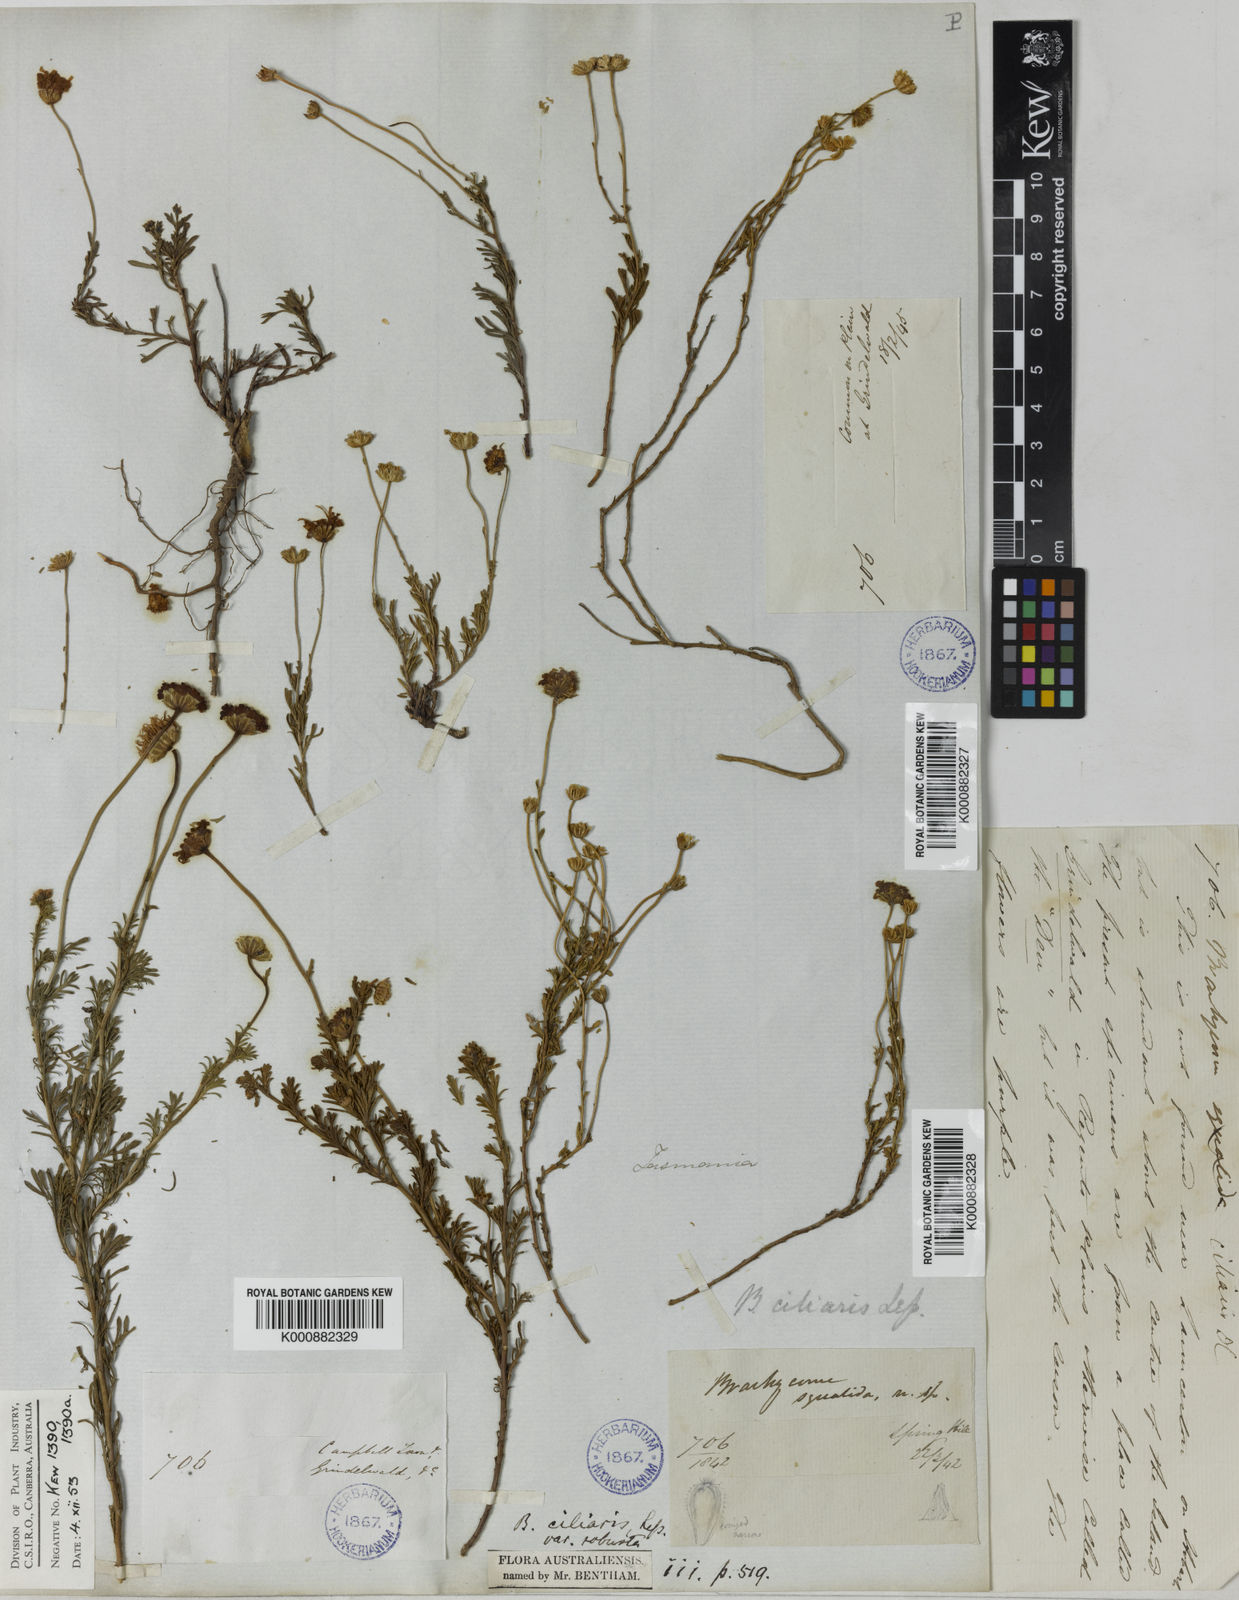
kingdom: Plantae
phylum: Tracheophyta
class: Magnoliopsida
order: Asterales
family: Asteraceae
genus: Brachyscome
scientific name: Brachyscome rigidula
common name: Leafy daisy
